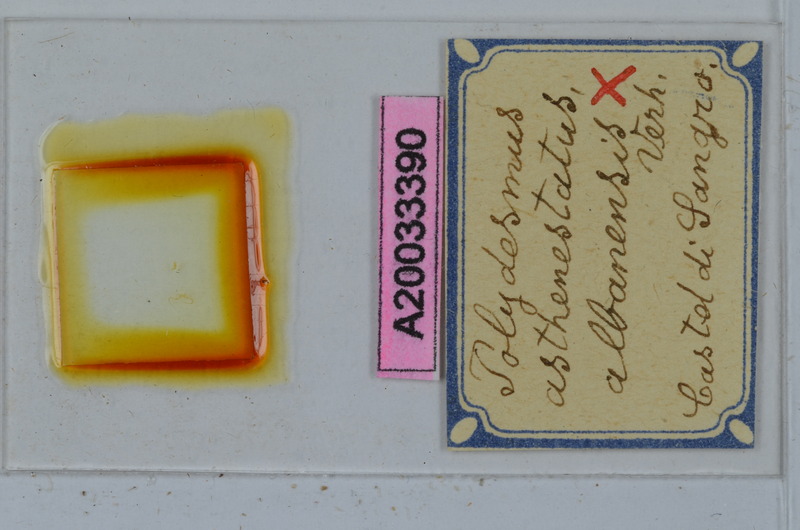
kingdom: Animalia
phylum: Arthropoda
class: Diplopoda
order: Polydesmida
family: Polydesmidae
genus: Polydesmus
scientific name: Polydesmus asthenestatus
